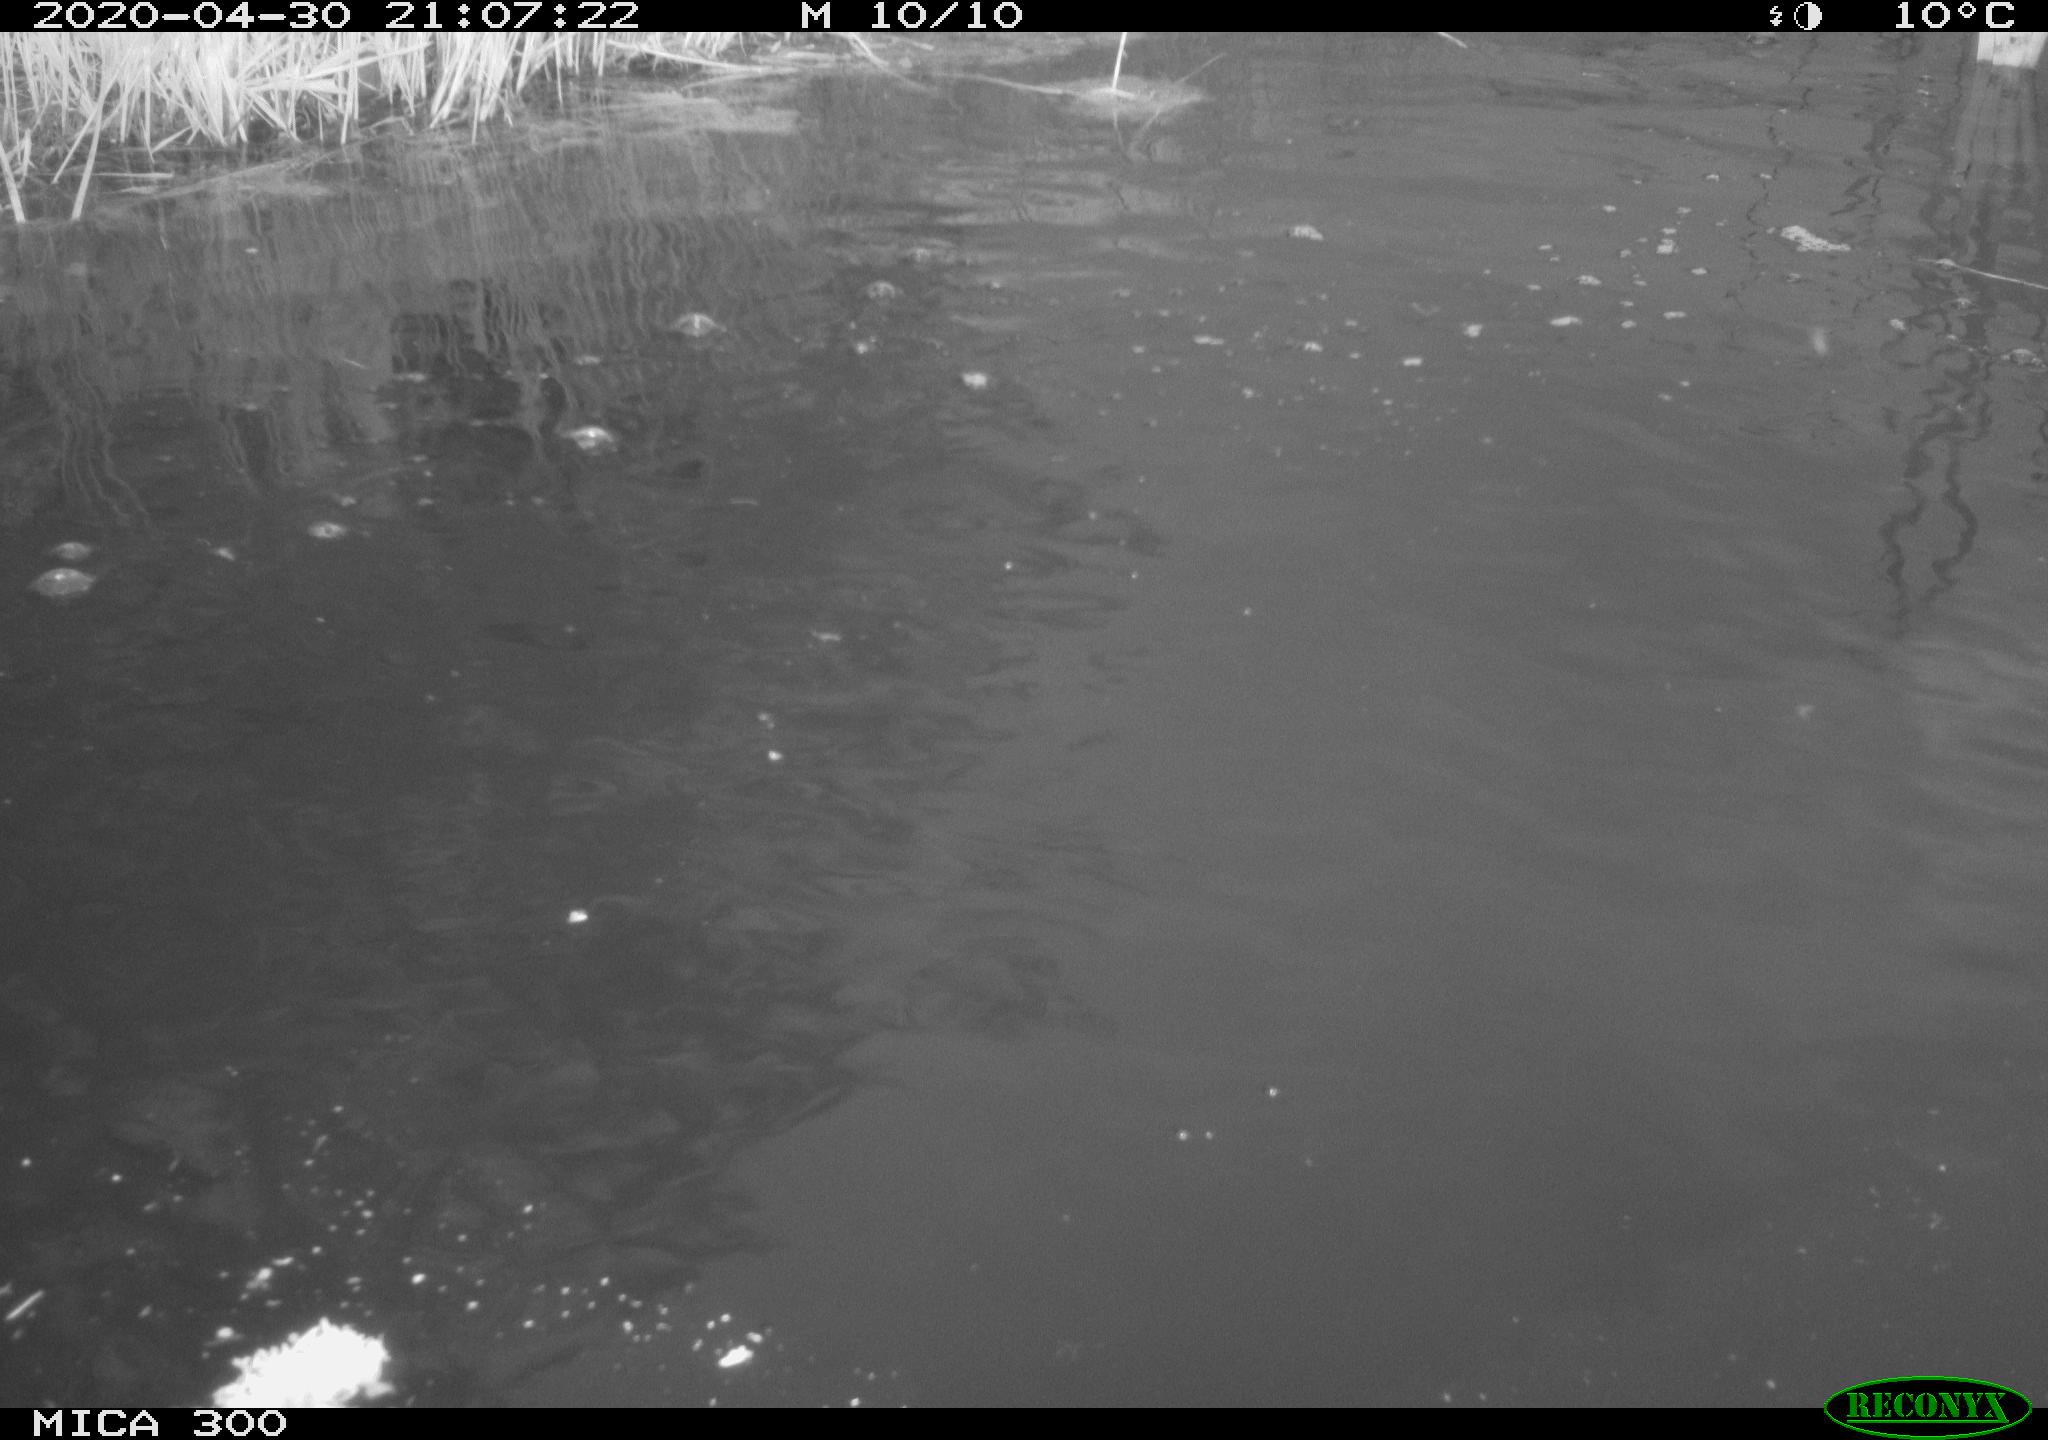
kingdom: Animalia
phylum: Chordata
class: Aves
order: Anseriformes
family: Anatidae
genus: Anas
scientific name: Anas platyrhynchos
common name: Mallard
